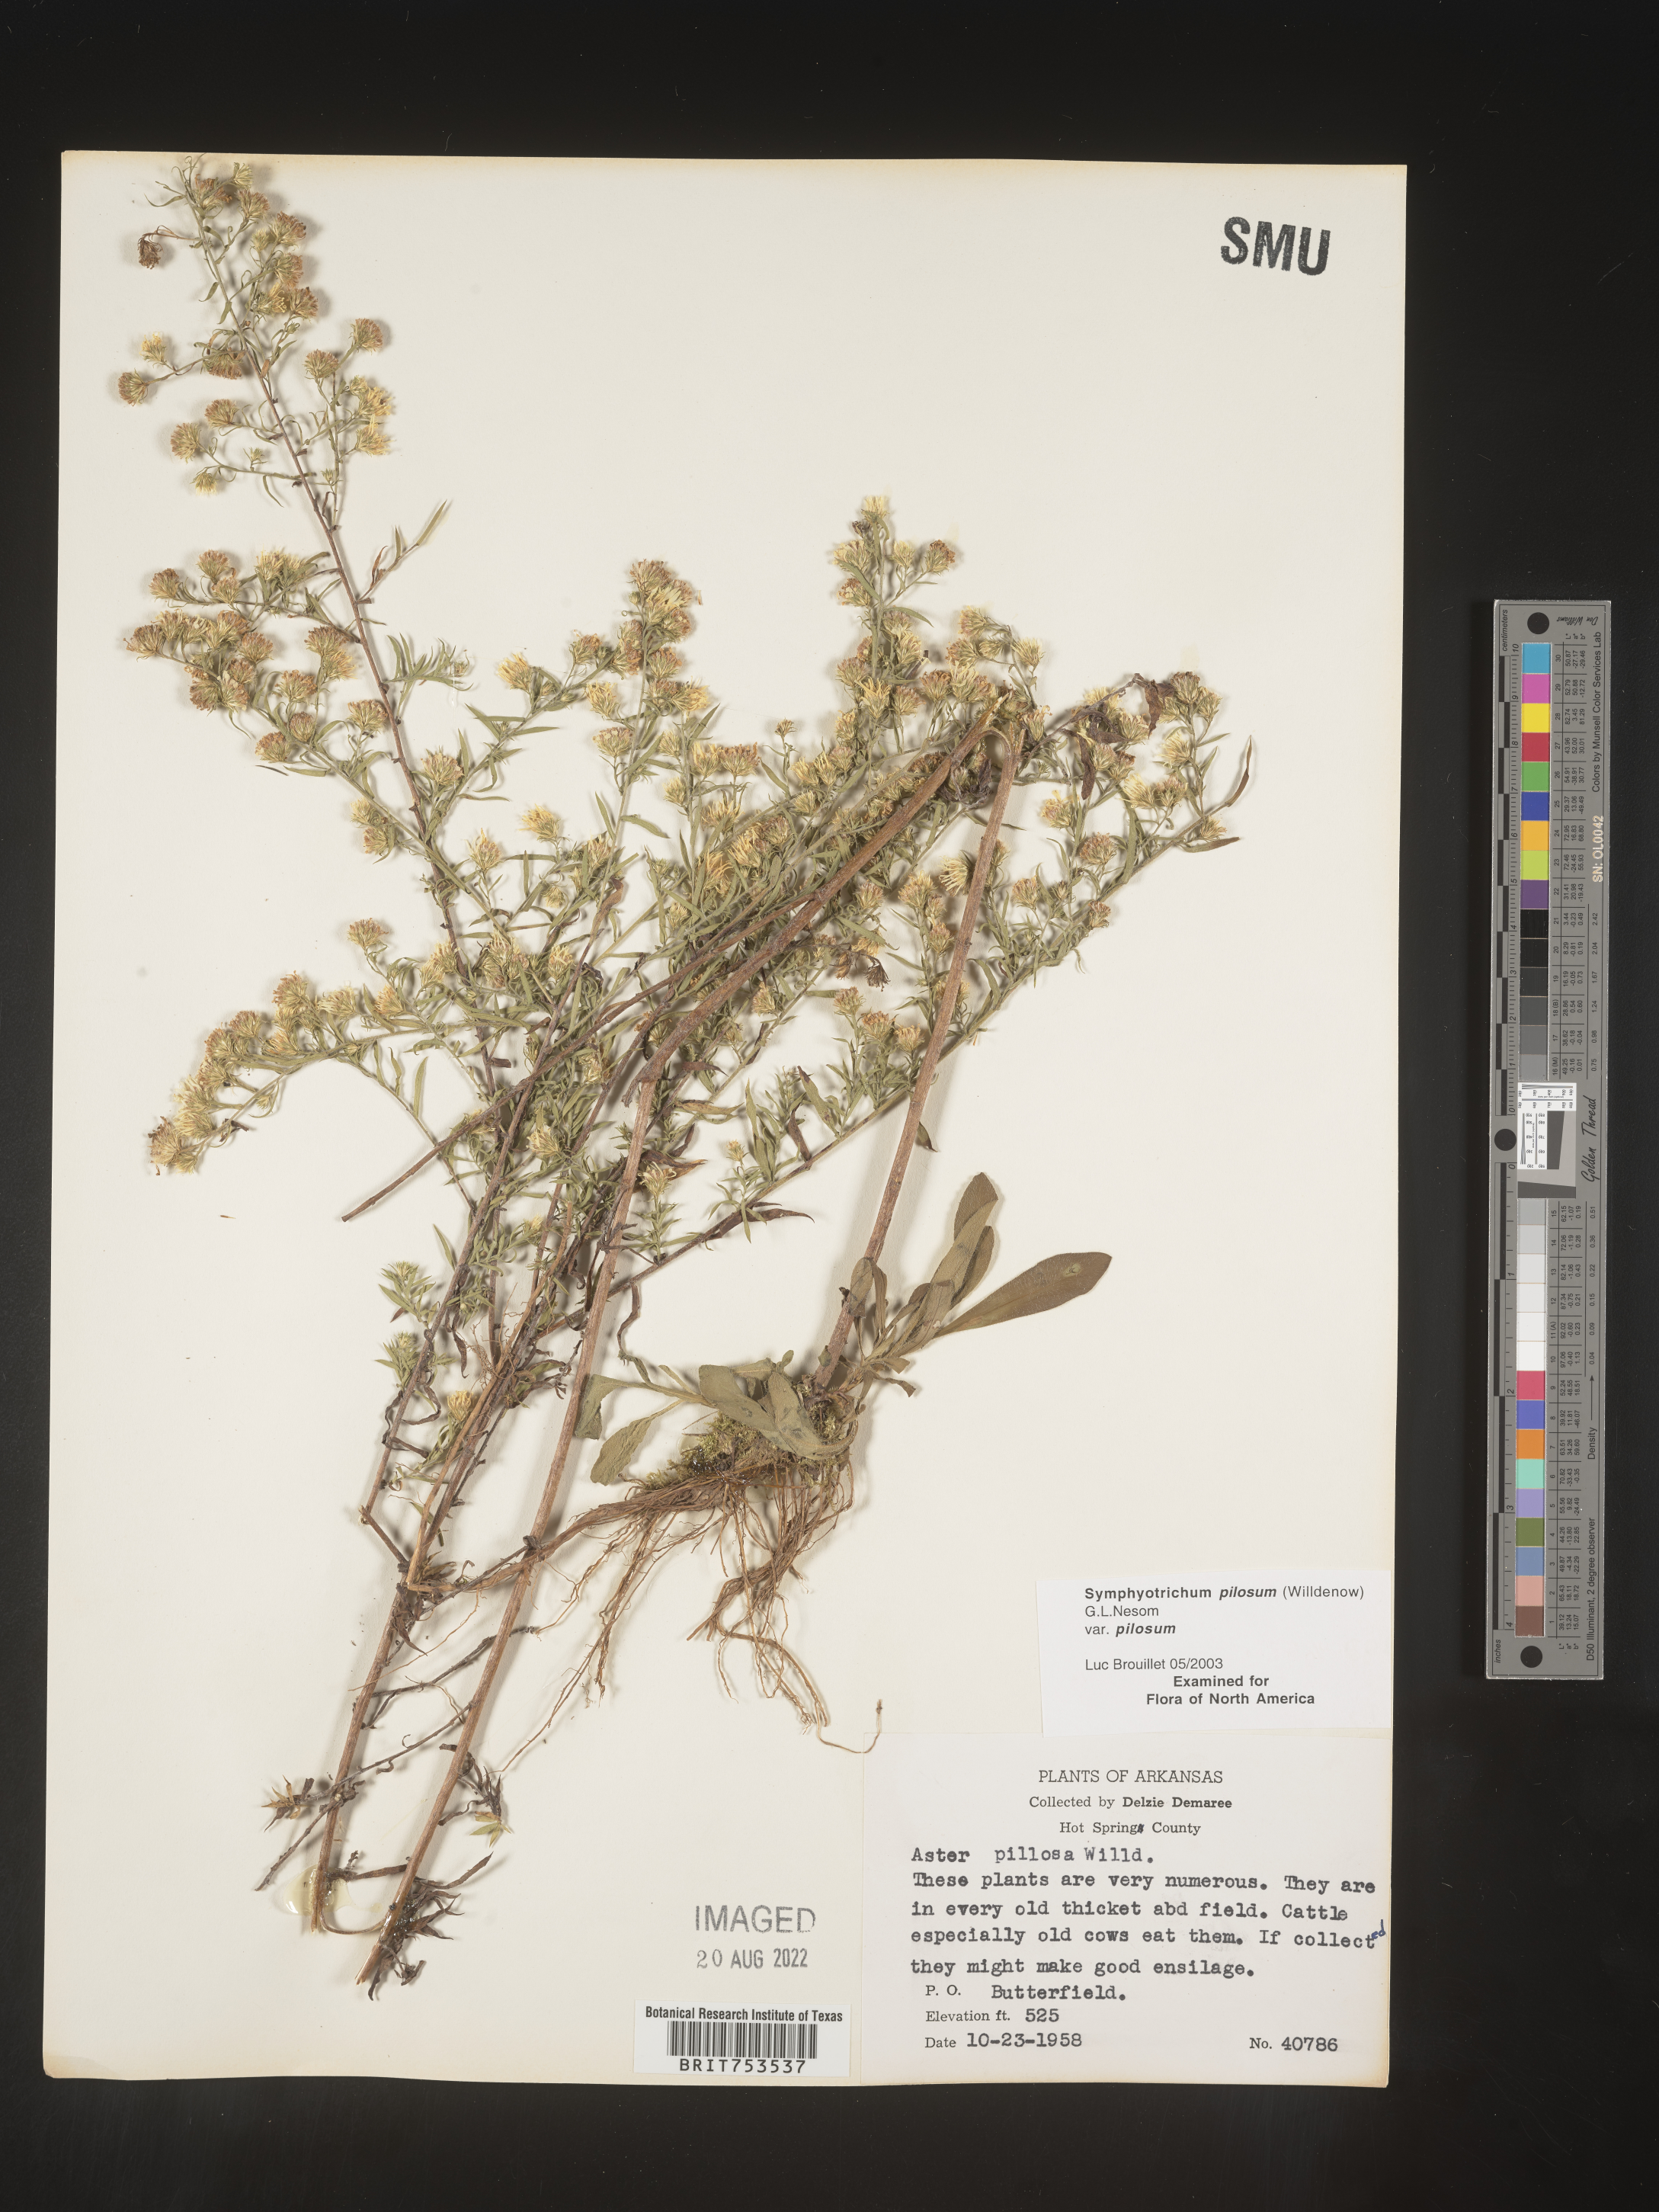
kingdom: Plantae
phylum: Tracheophyta
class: Magnoliopsida
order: Asterales
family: Asteraceae
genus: Symphyotrichum
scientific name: Symphyotrichum pilosum
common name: Awl aster
